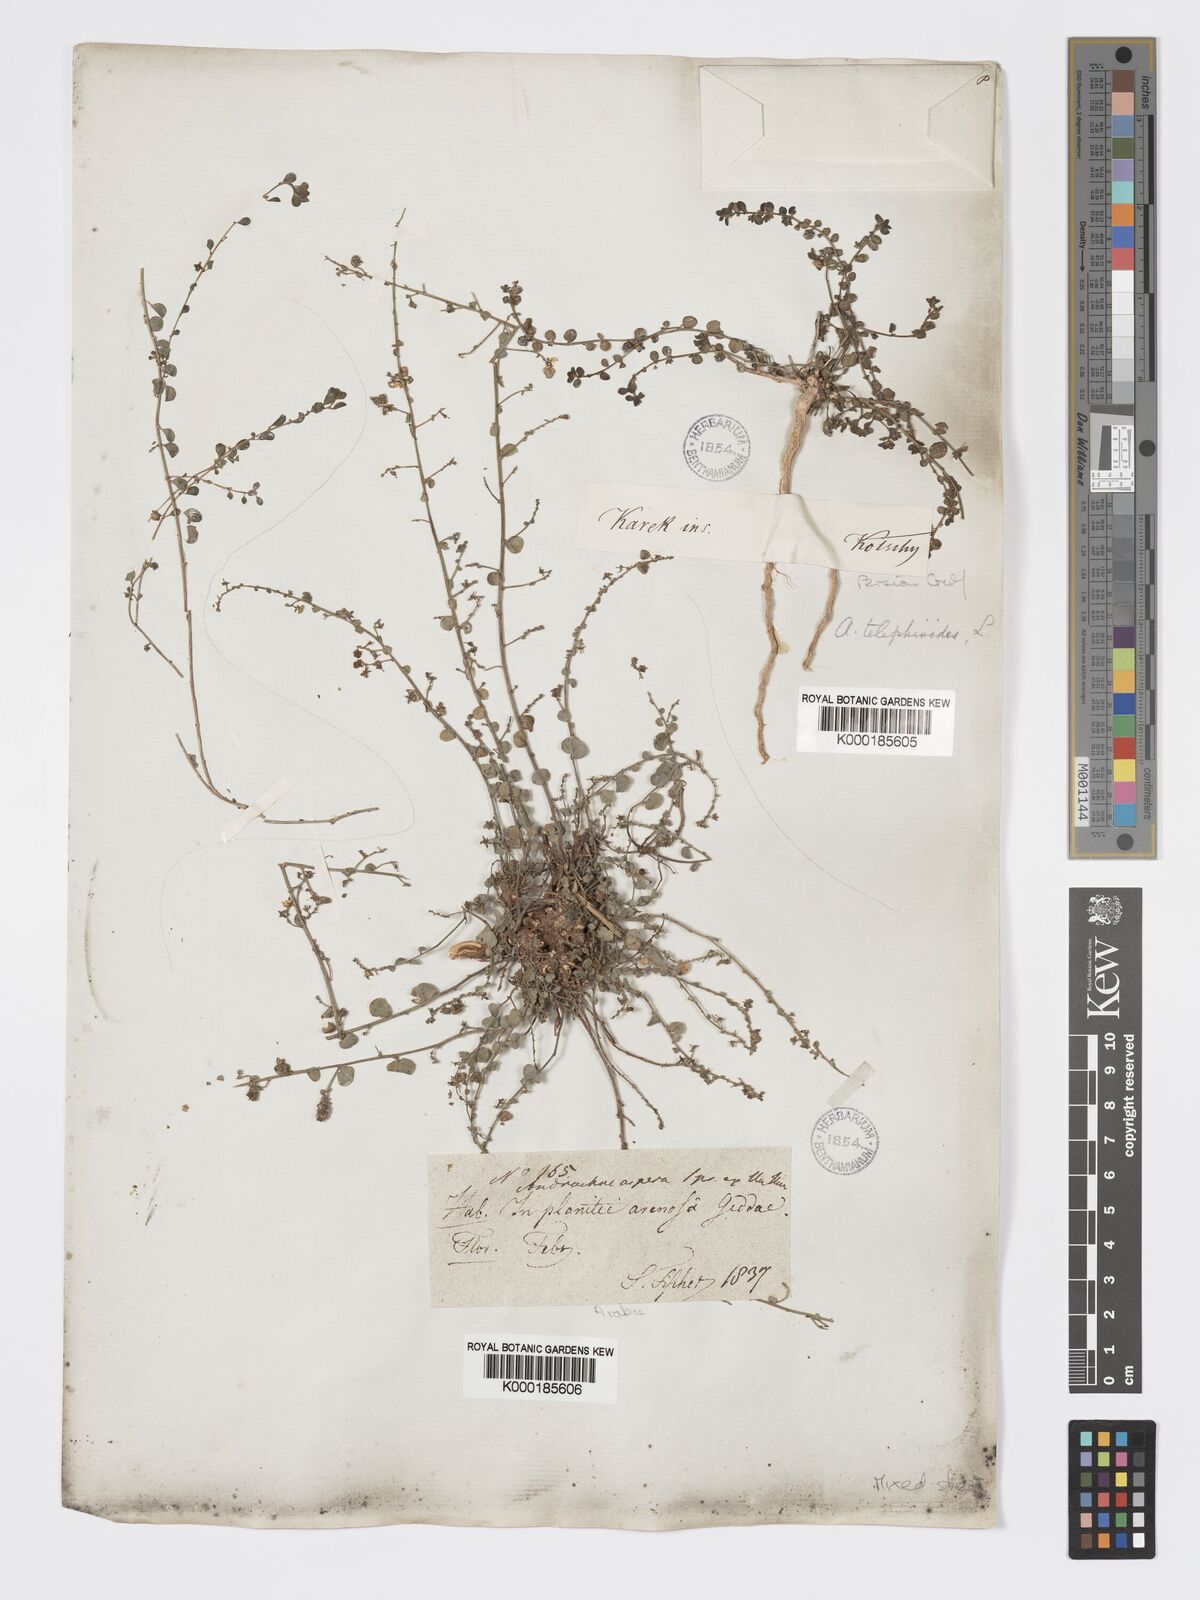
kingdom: Plantae
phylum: Tracheophyta
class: Magnoliopsida
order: Malpighiales
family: Phyllanthaceae
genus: Andrachne
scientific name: Andrachne telephioides
